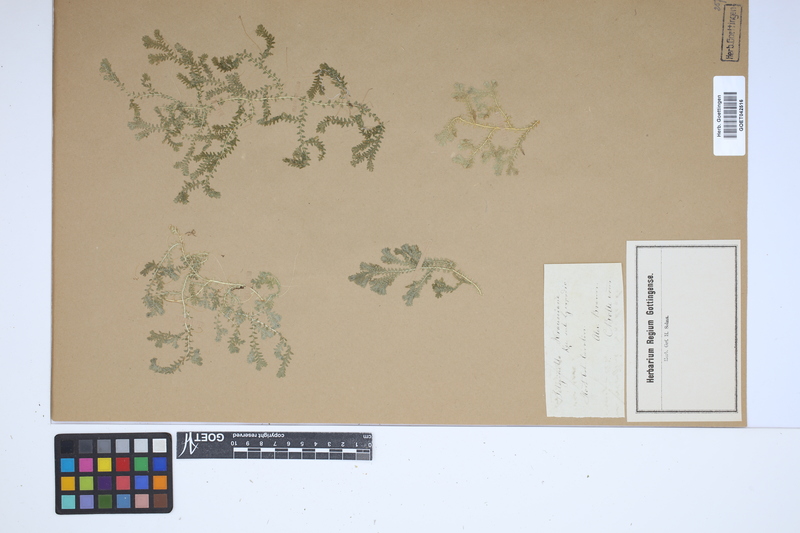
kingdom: Plantae
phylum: Tracheophyta
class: Lycopodiopsida
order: Selaginellales
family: Selaginellaceae
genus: Selaginella
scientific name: Selaginella kraussiana
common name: Krauss' spikemoss
